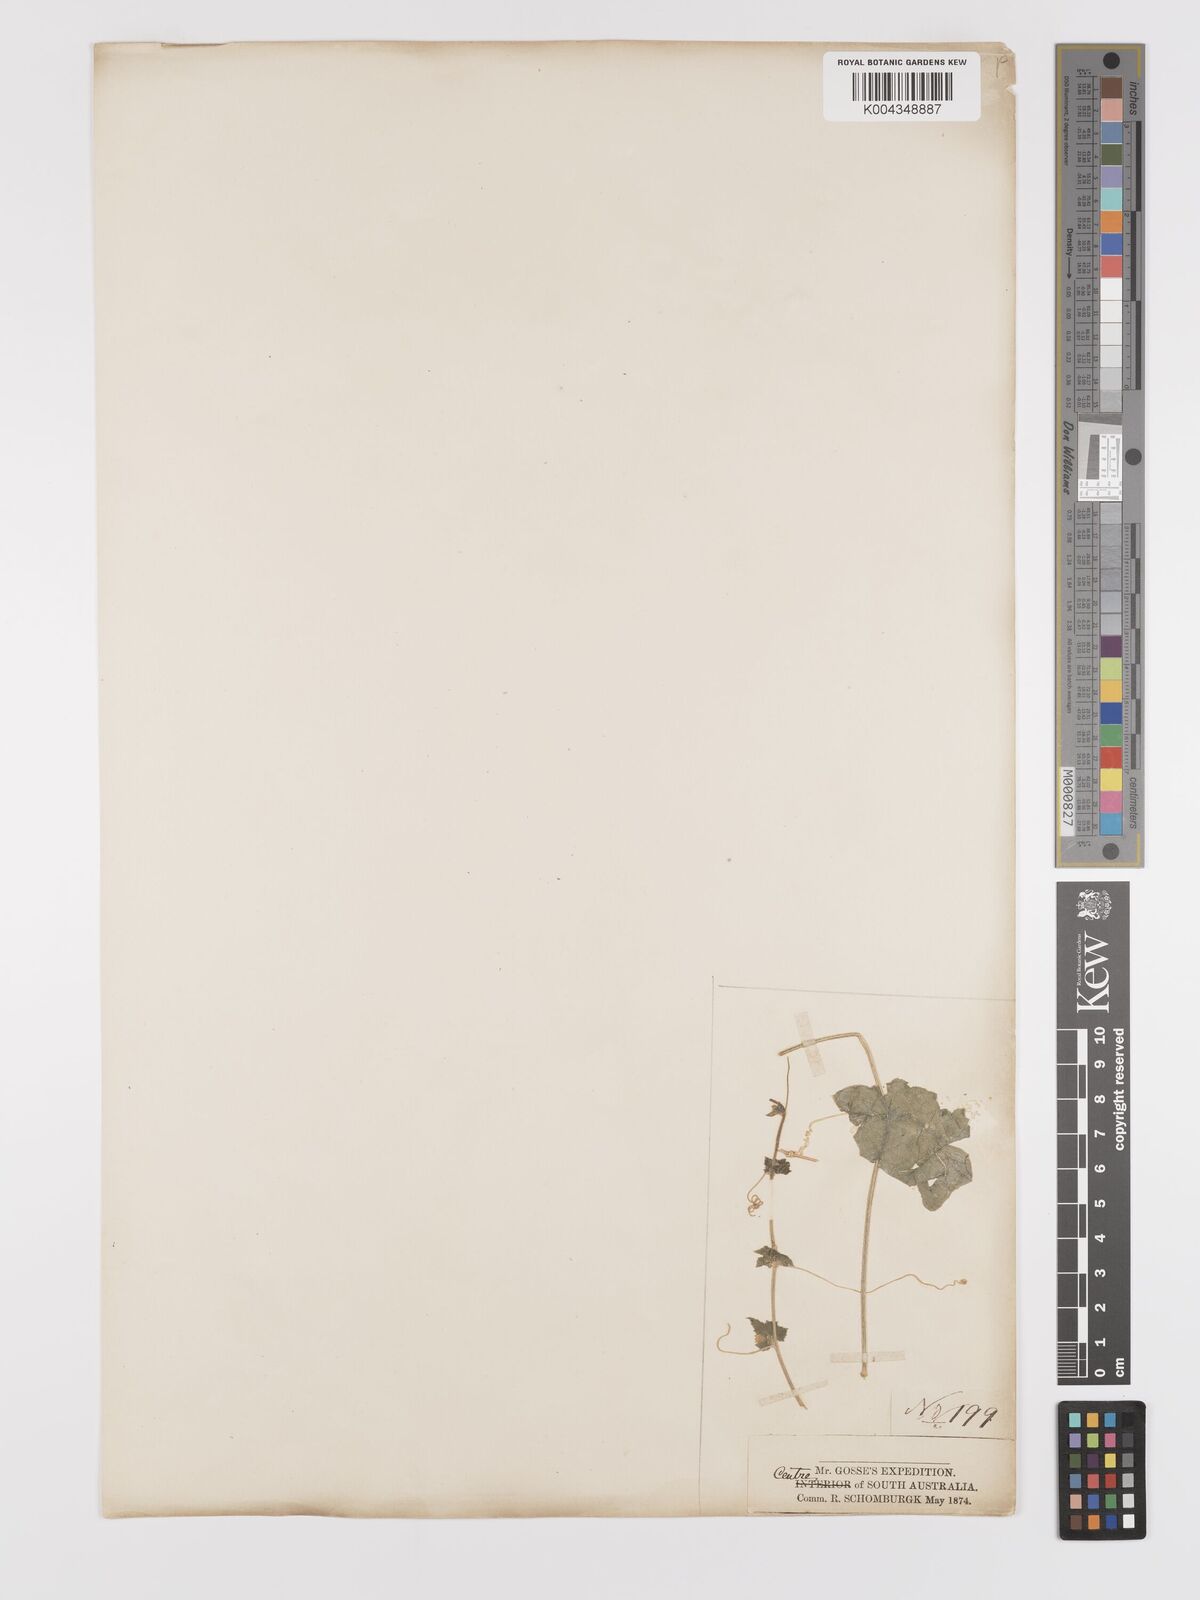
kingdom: Animalia
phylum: Arthropoda
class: Insecta
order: Lepidoptera
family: Crambidae
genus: Mukia
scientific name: Mukia
